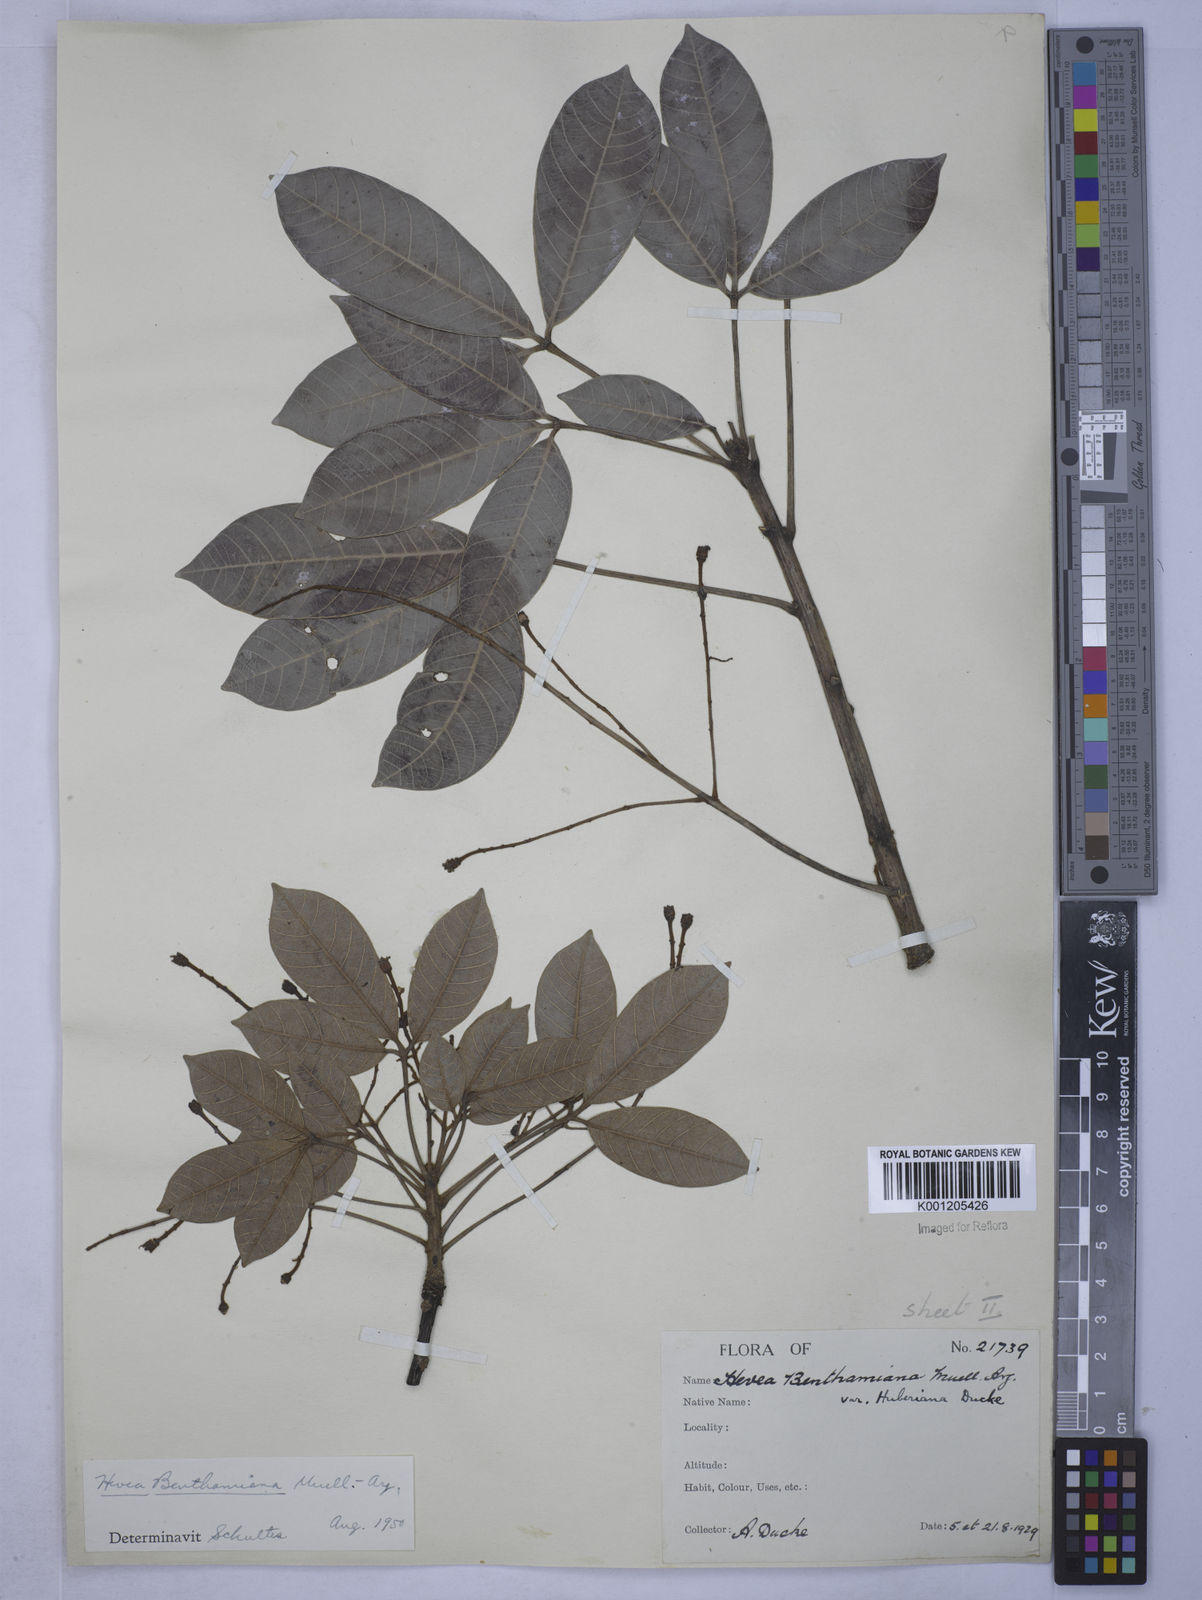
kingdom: Plantae
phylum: Tracheophyta
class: Magnoliopsida
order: Malpighiales
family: Euphorbiaceae
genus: Hevea
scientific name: Hevea
